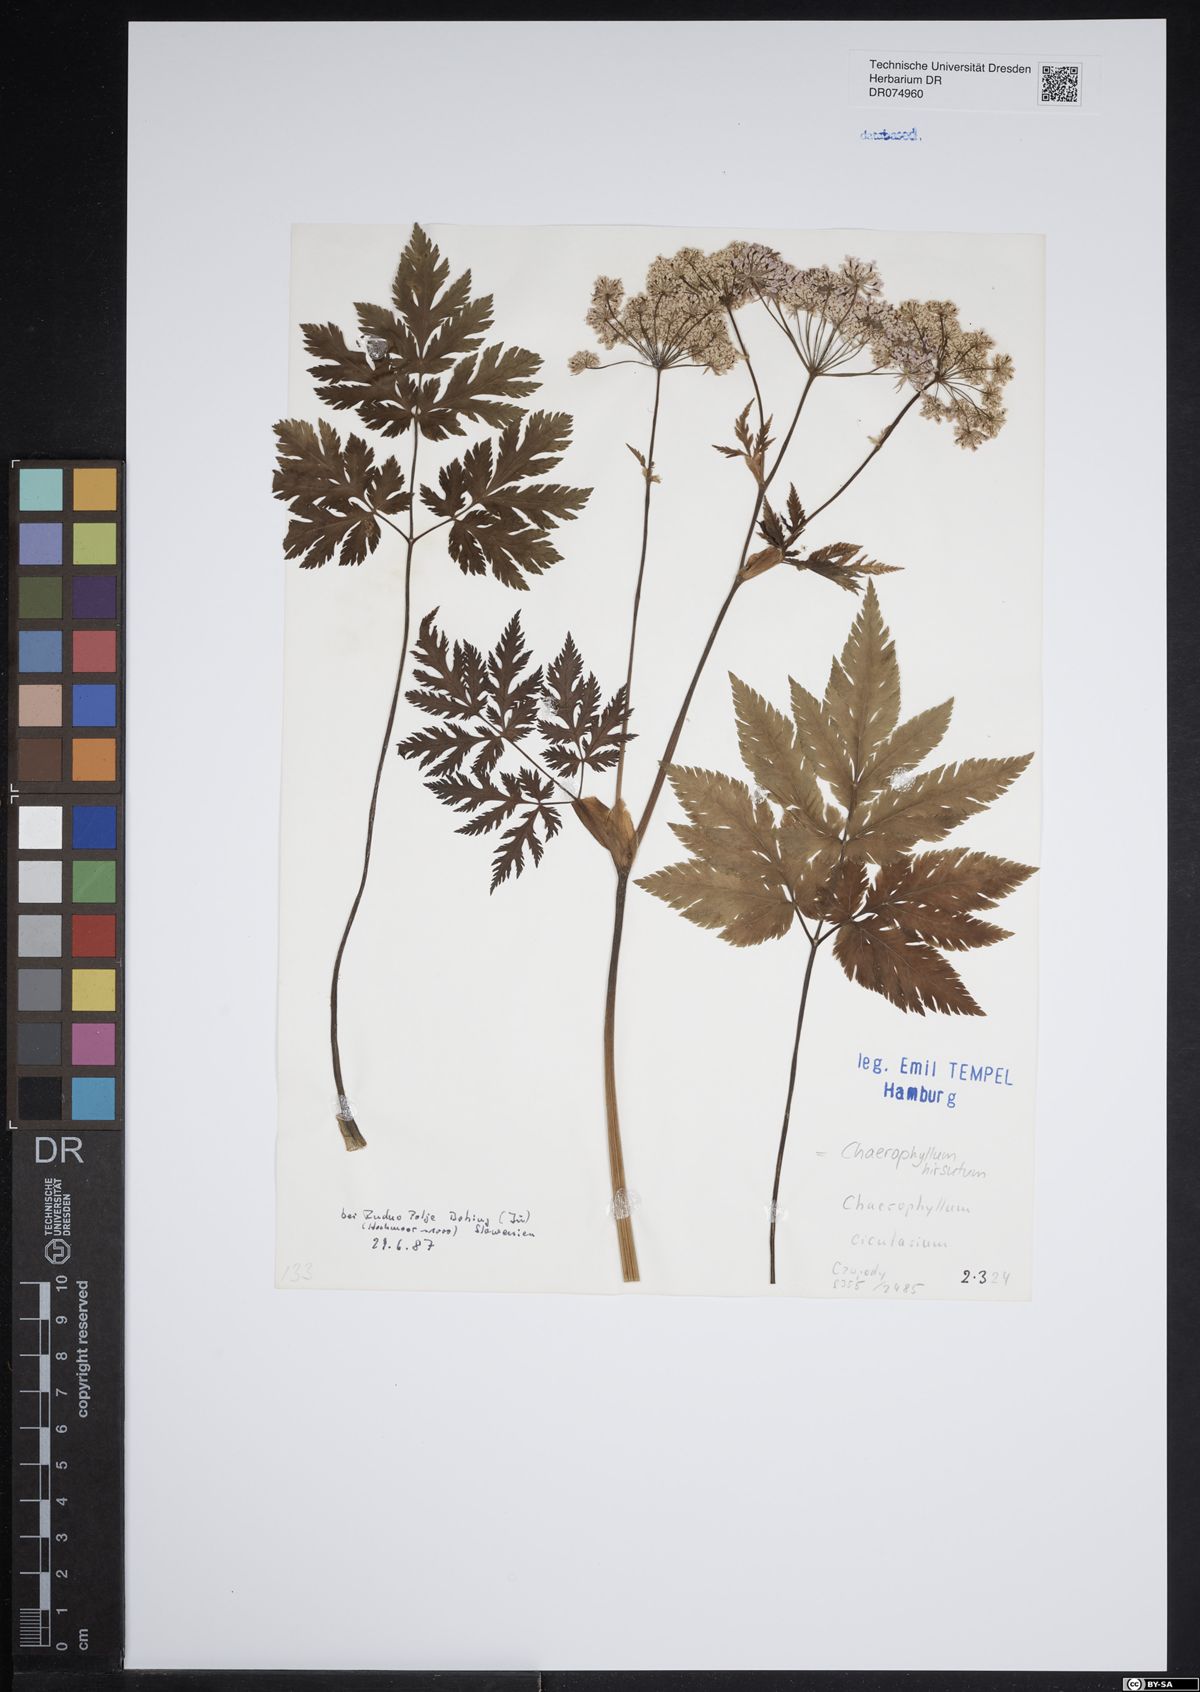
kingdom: Plantae
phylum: Tracheophyta
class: Magnoliopsida
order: Apiales
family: Apiaceae
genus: Chaerophyllum
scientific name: Chaerophyllum hirsutum
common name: Hairy chervil
